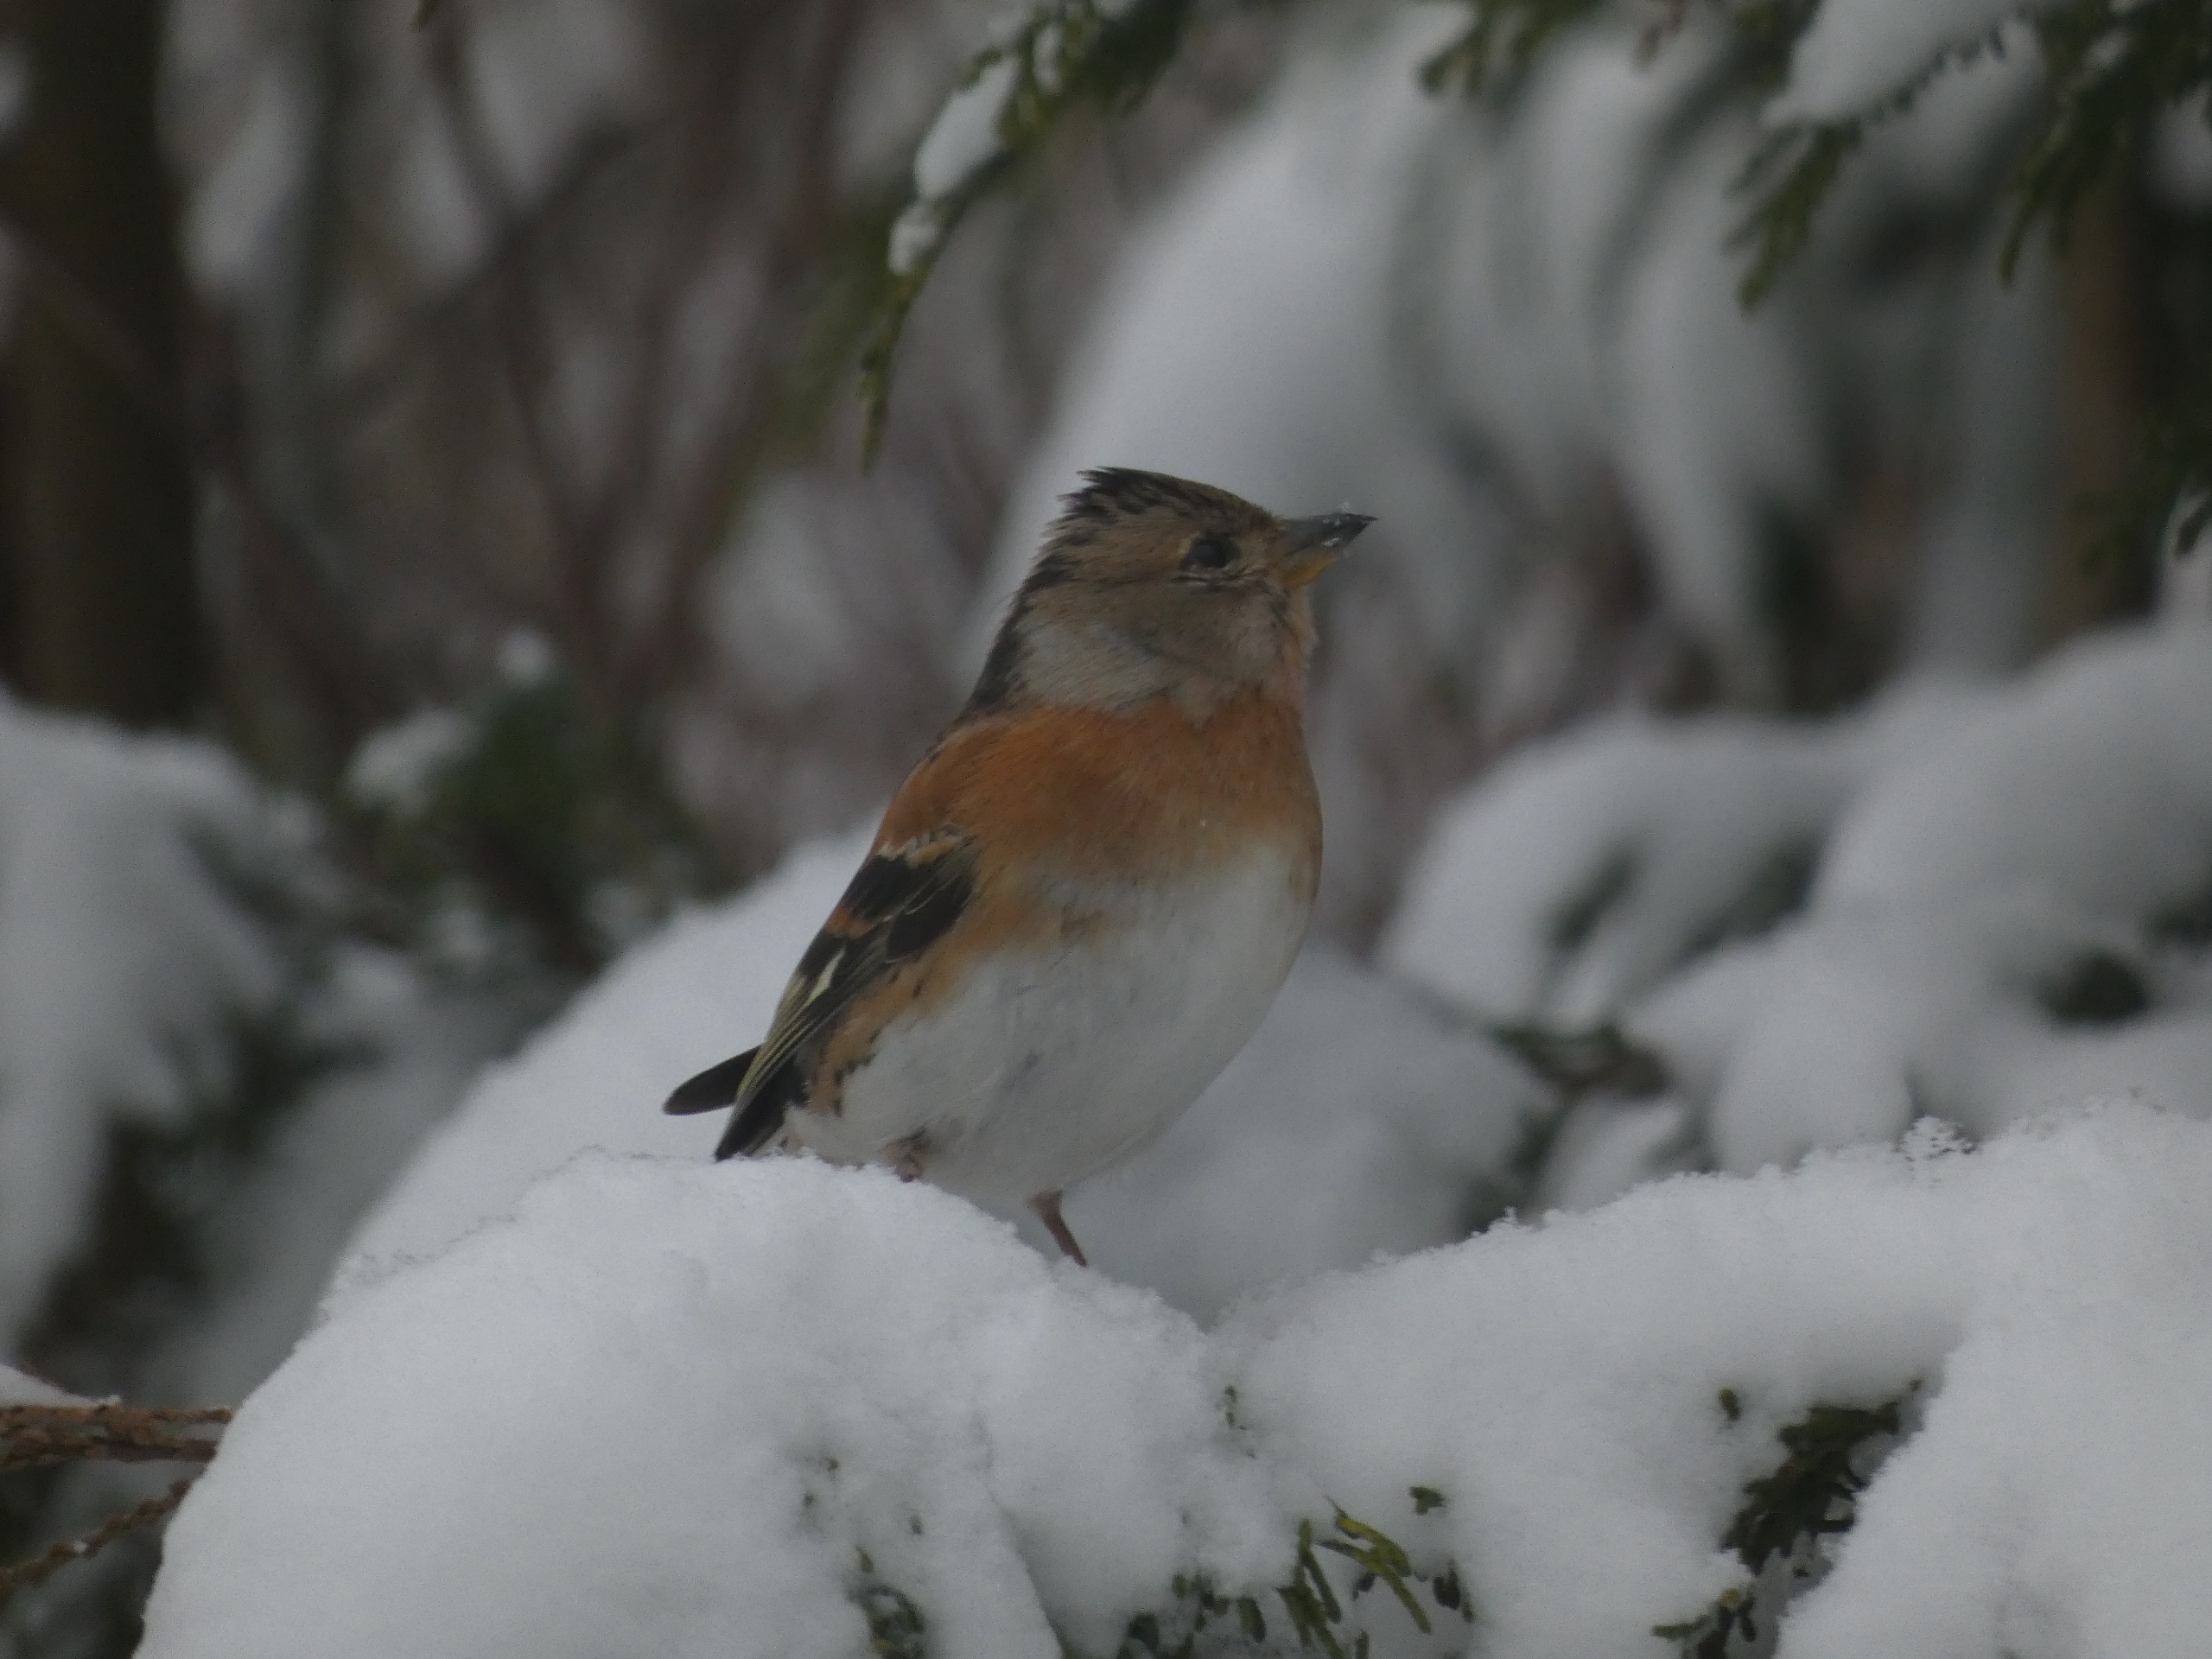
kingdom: Animalia
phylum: Chordata
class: Aves
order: Passeriformes
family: Fringillidae
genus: Fringilla
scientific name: Fringilla montifringilla
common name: Kvækerfinke
